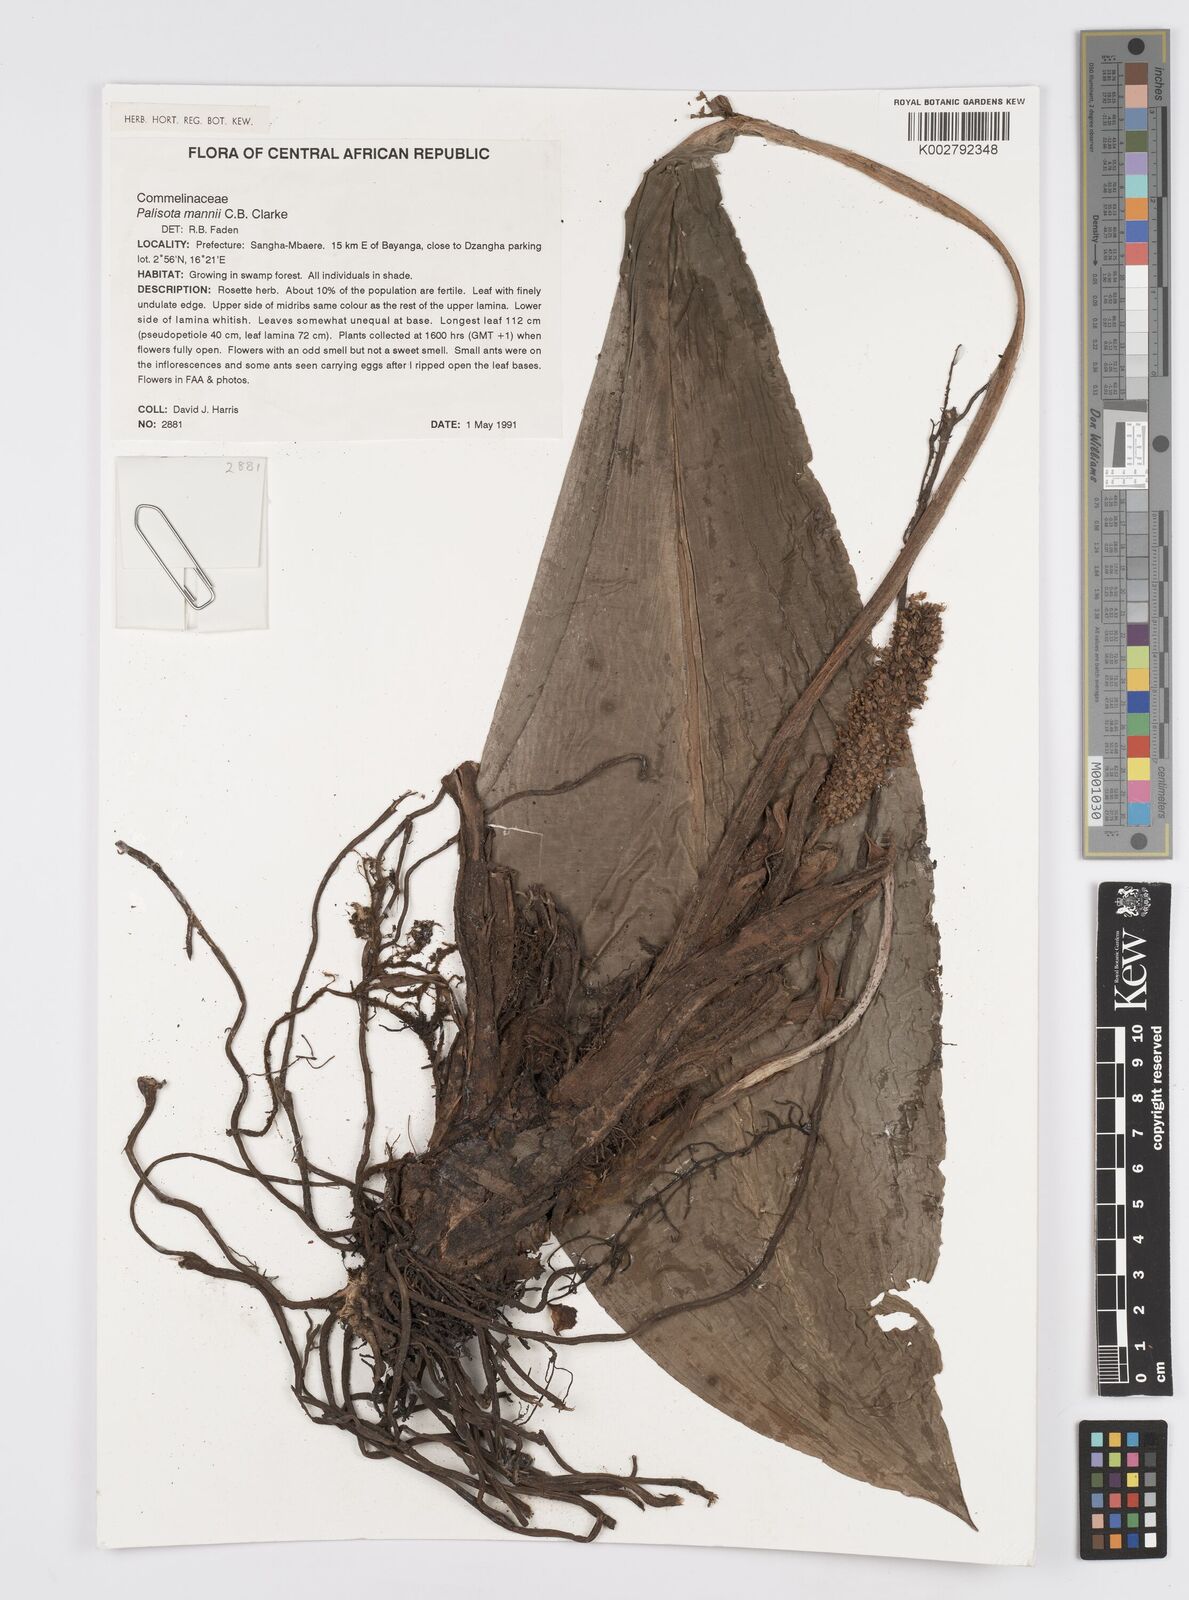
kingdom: Plantae
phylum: Tracheophyta
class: Liliopsida
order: Commelinales
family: Commelinaceae
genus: Palisota
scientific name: Palisota mannii
